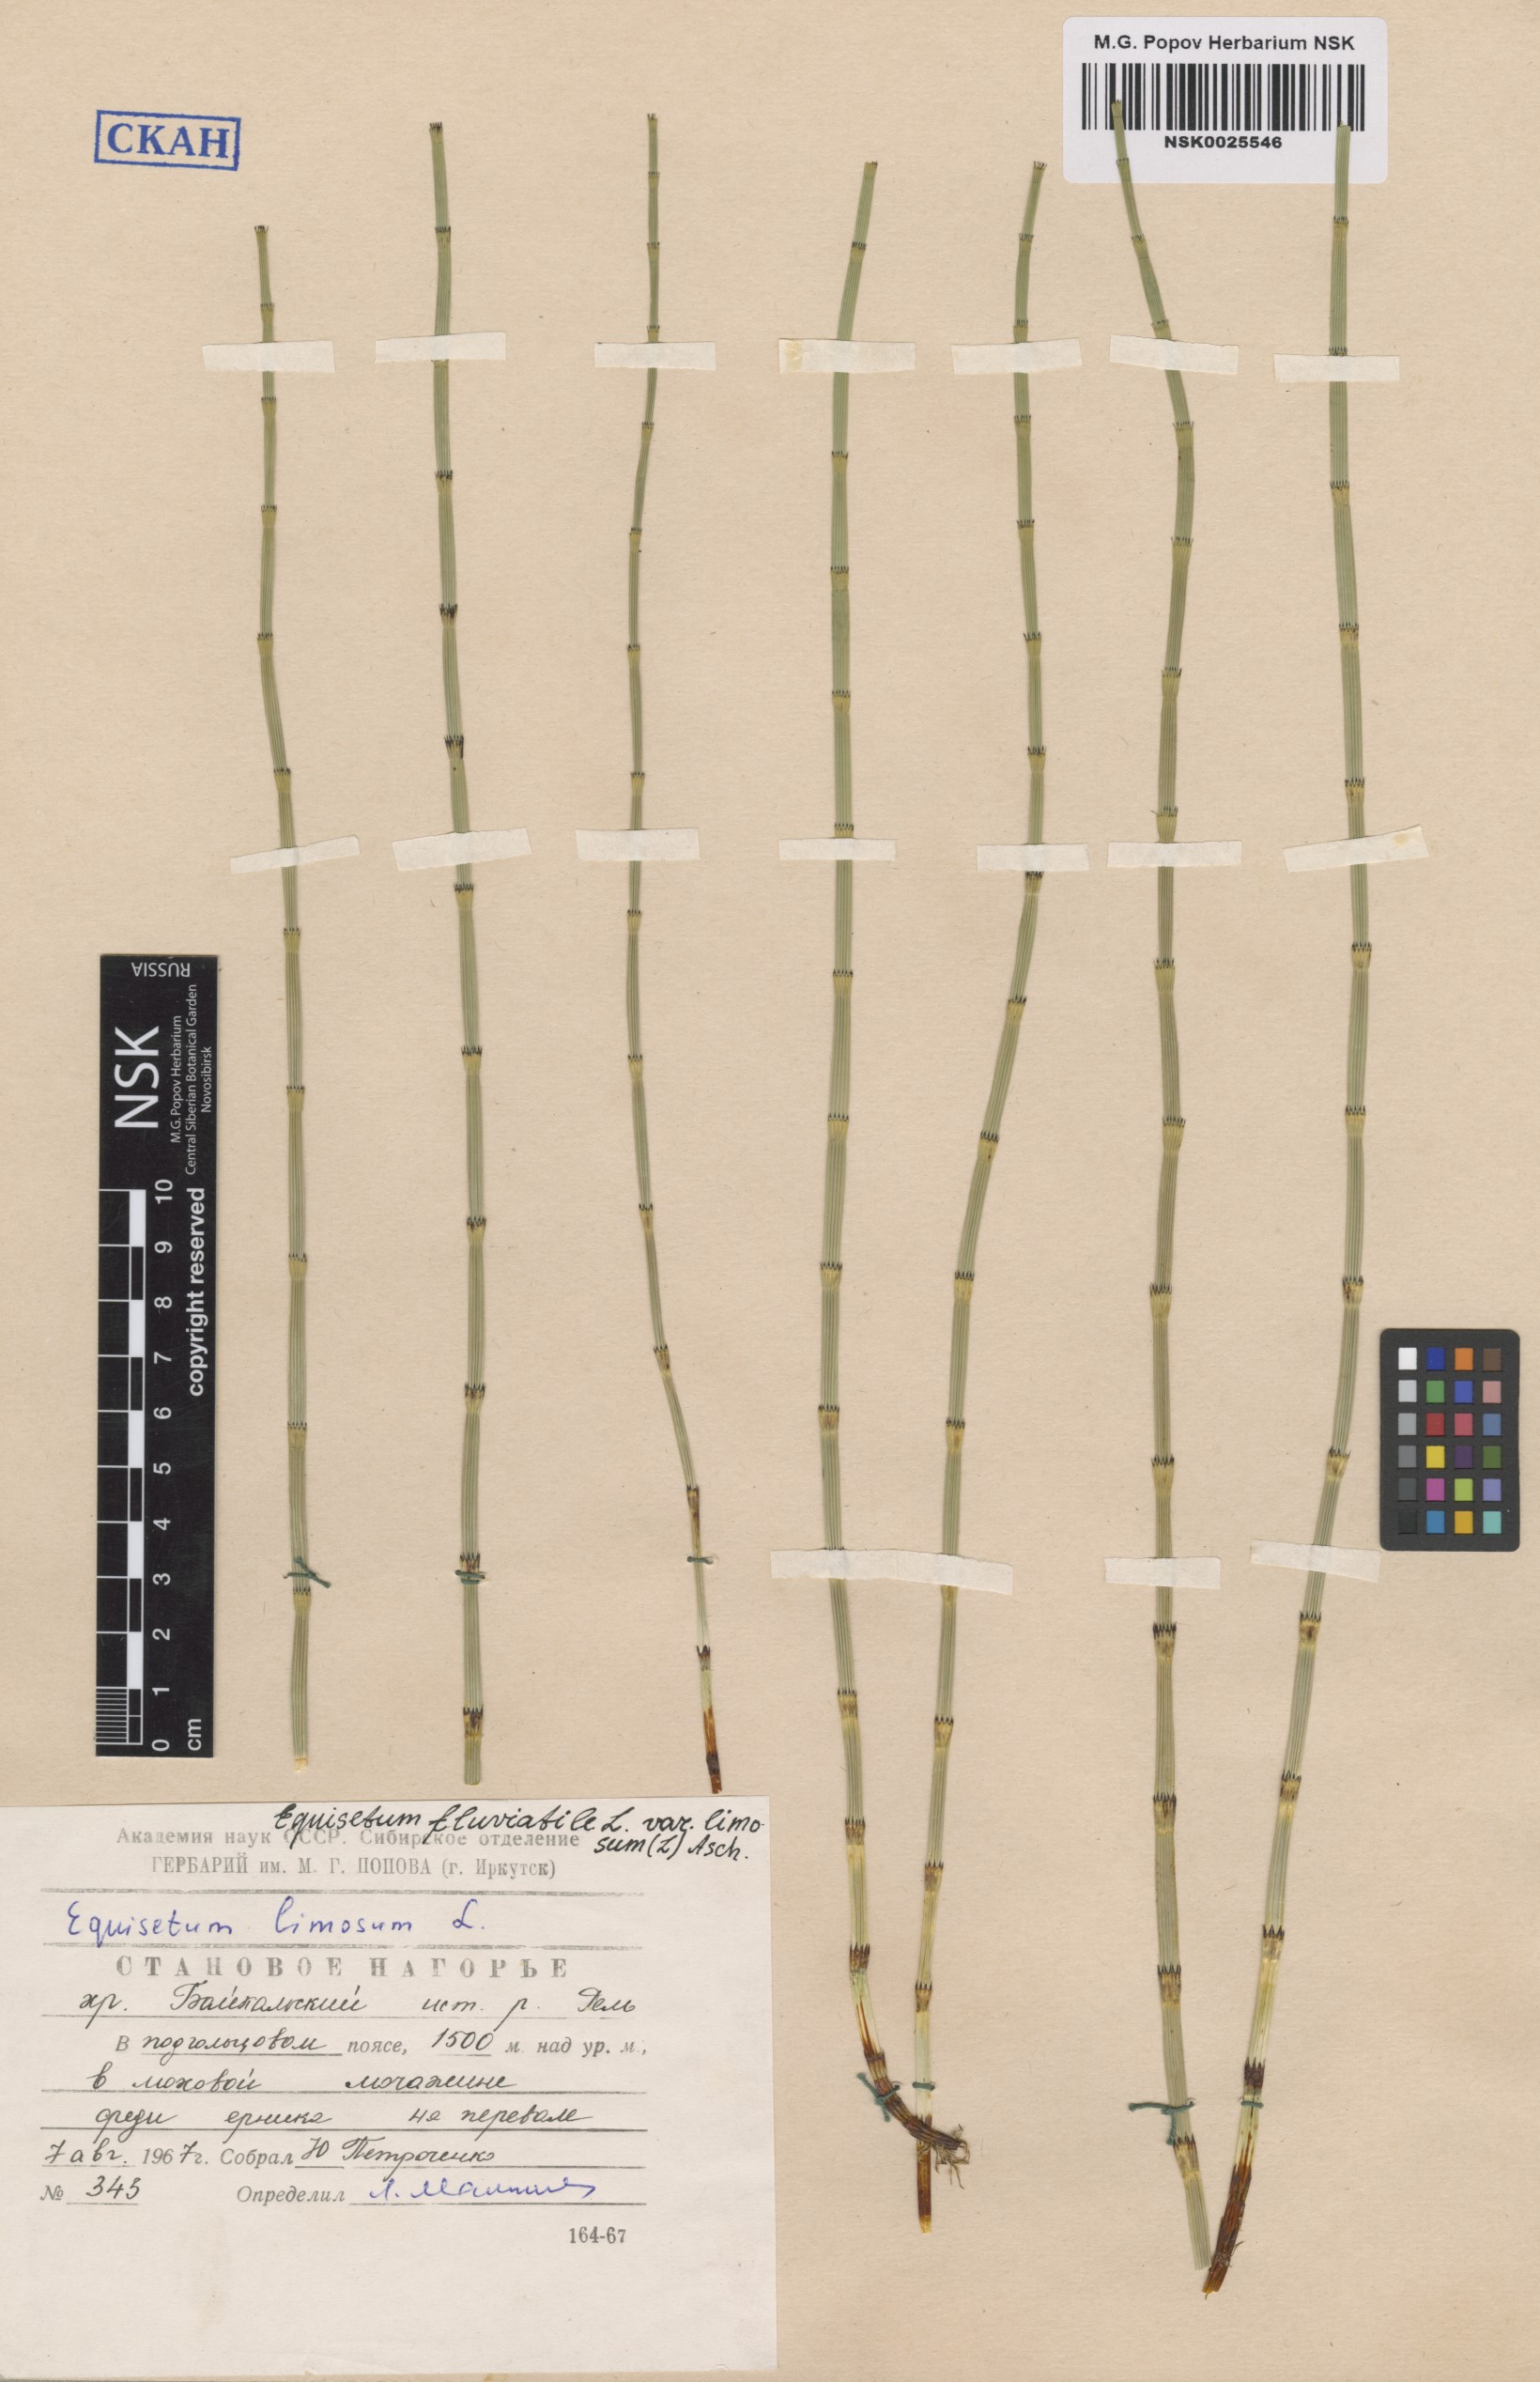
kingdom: Plantae
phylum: Tracheophyta
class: Polypodiopsida
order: Equisetales
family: Equisetaceae
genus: Equisetum
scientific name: Equisetum fluviatile
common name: Water horsetail
